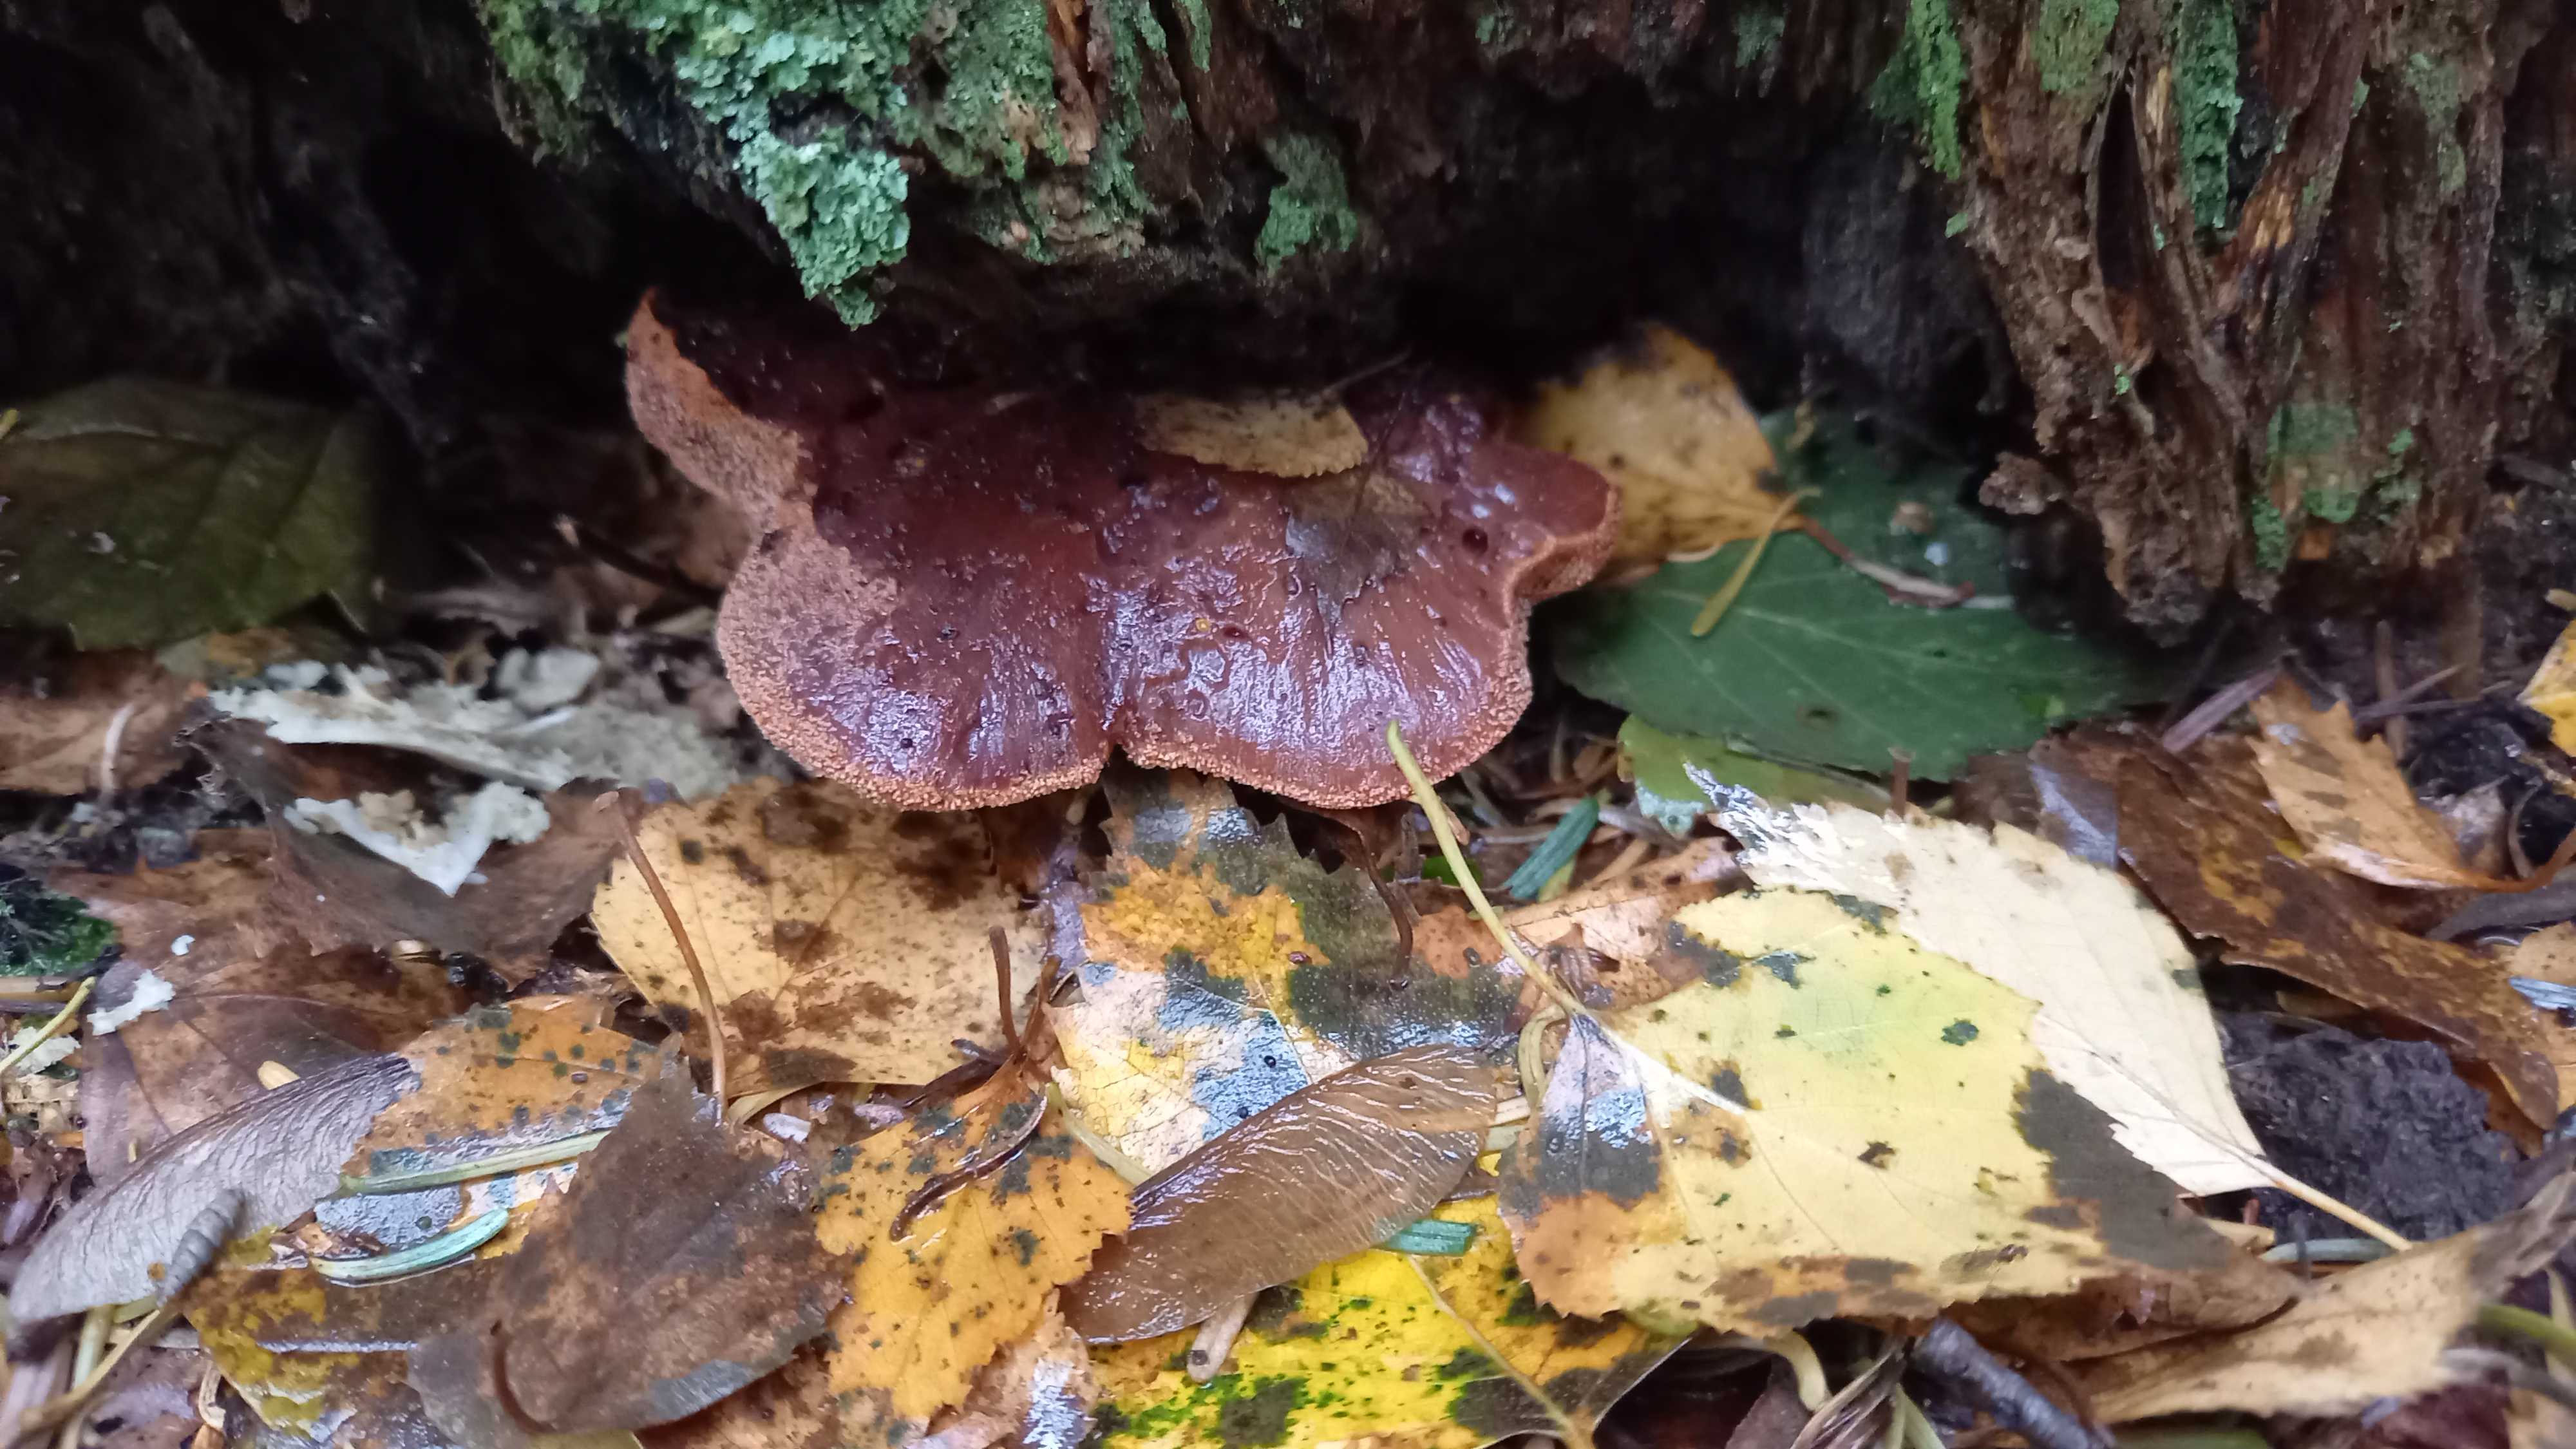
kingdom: Fungi
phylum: Basidiomycota
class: Agaricomycetes
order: Agaricales
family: Fistulinaceae
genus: Fistulina
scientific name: Fistulina hepatica
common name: oksetunge
